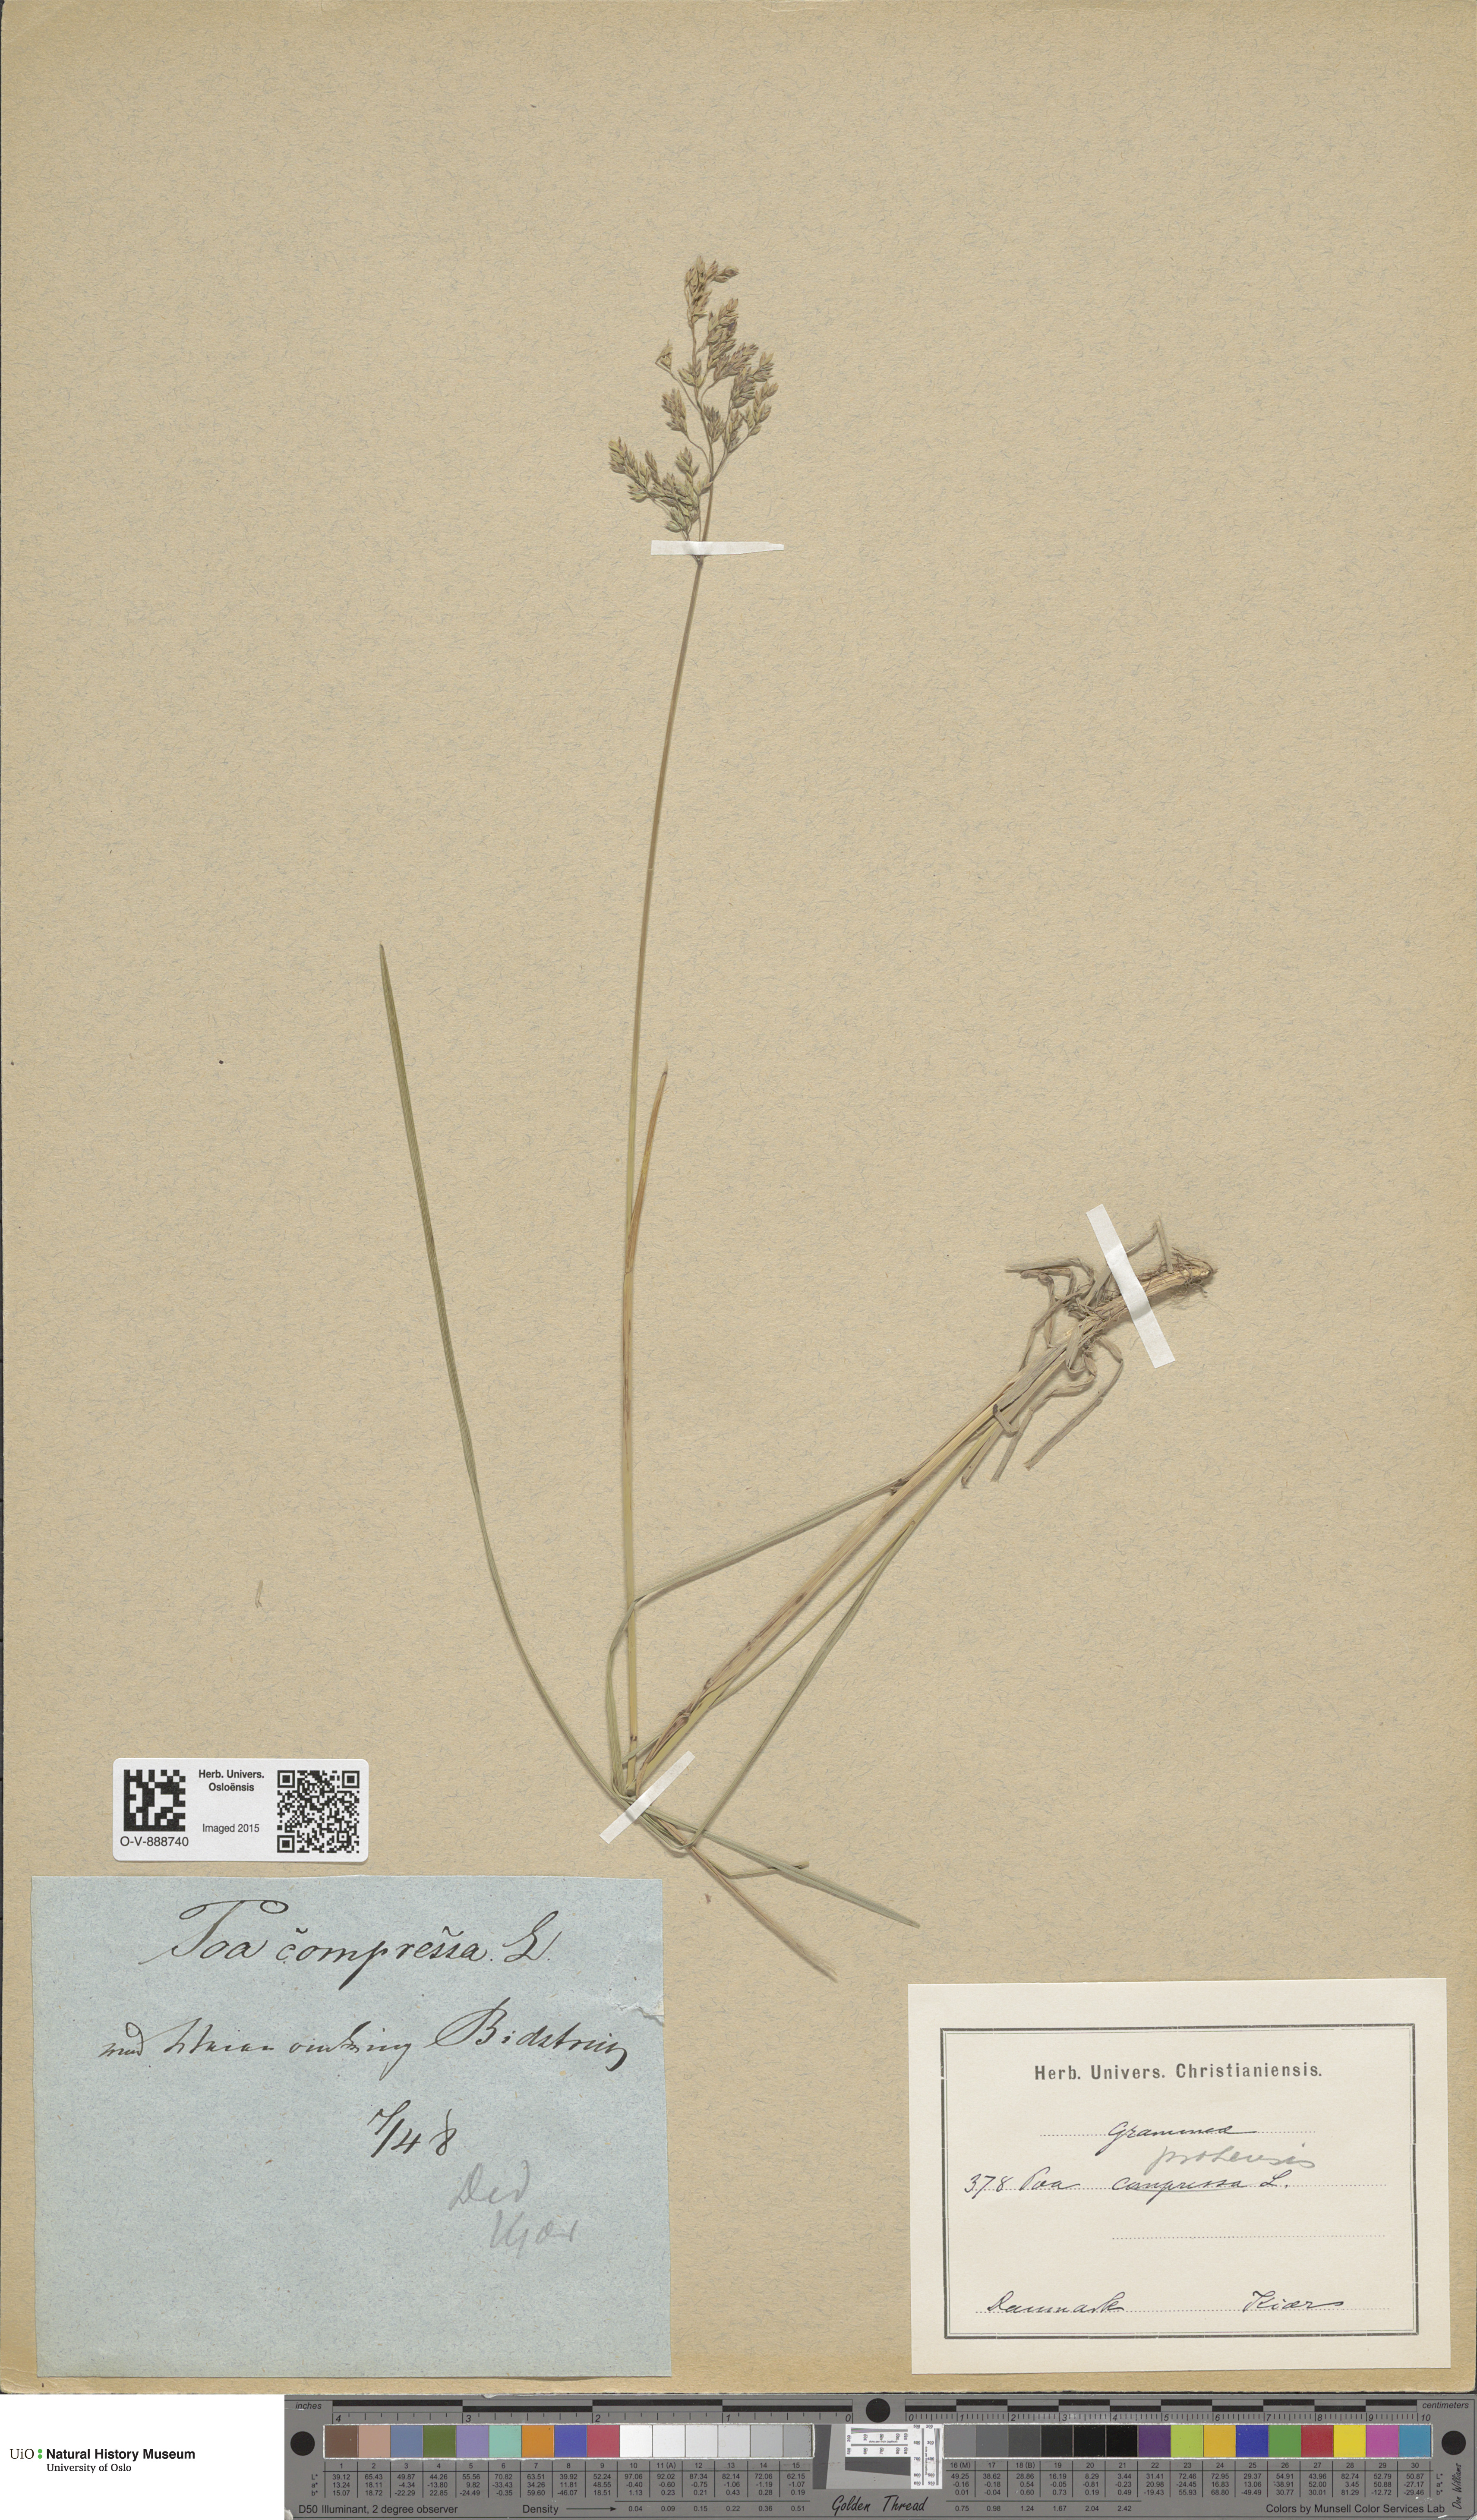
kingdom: Plantae
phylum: Tracheophyta
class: Liliopsida
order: Poales
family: Poaceae
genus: Poa
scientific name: Poa pratensis
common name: Kentucky bluegrass
